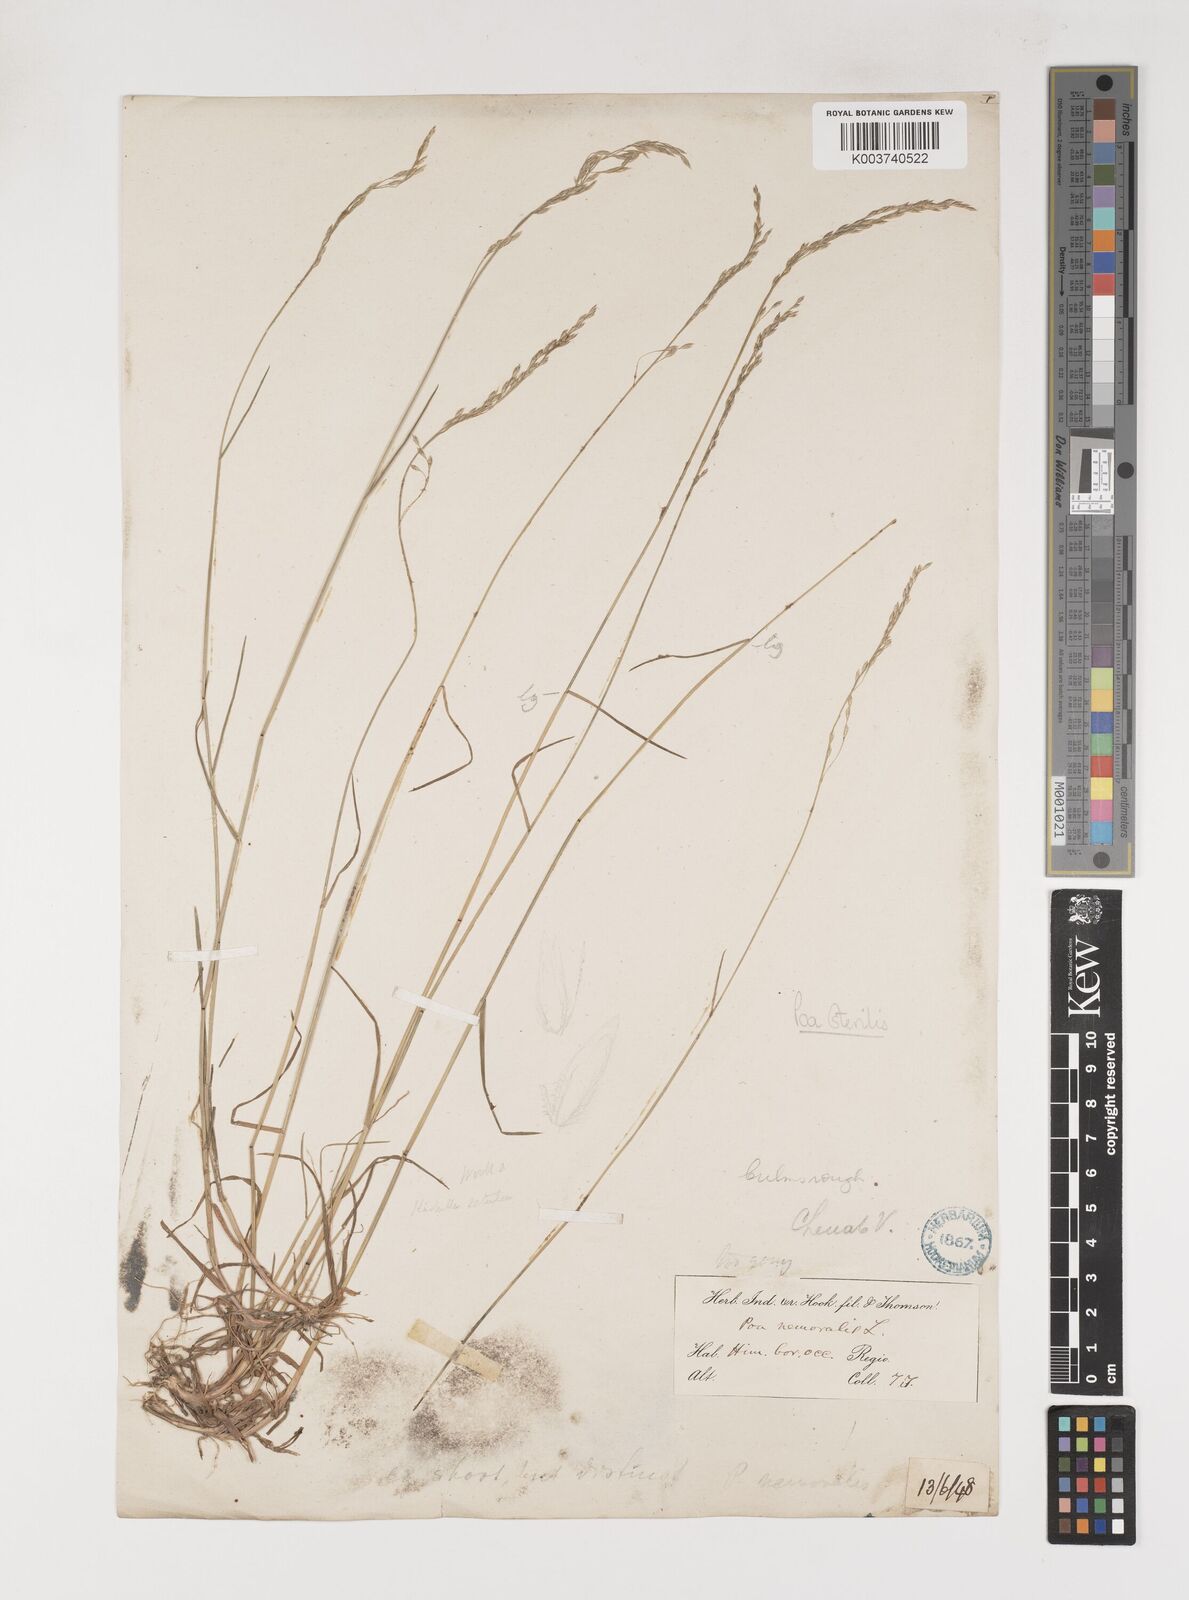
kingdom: Plantae
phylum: Tracheophyta
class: Liliopsida
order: Poales
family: Poaceae
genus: Poa
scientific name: Poa sterilis
